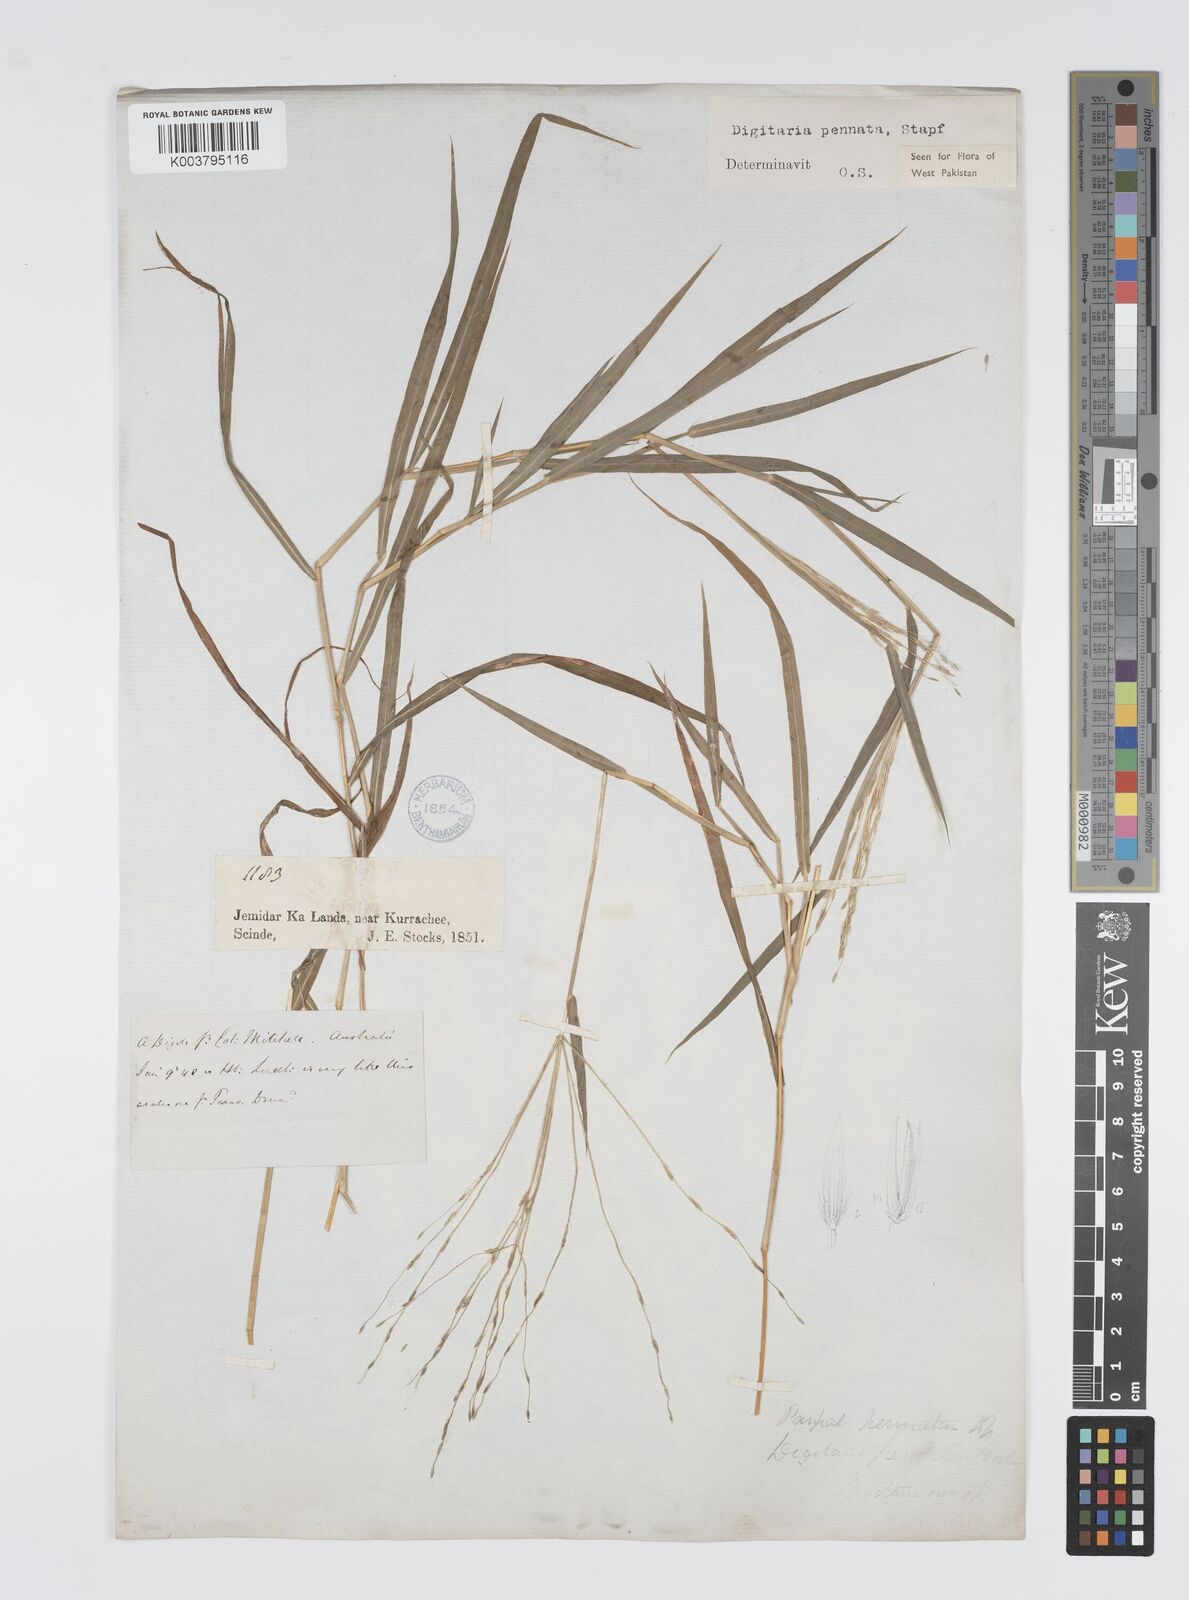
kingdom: Plantae
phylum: Tracheophyta
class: Liliopsida
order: Poales
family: Poaceae
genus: Digitaria
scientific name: Digitaria pennata
